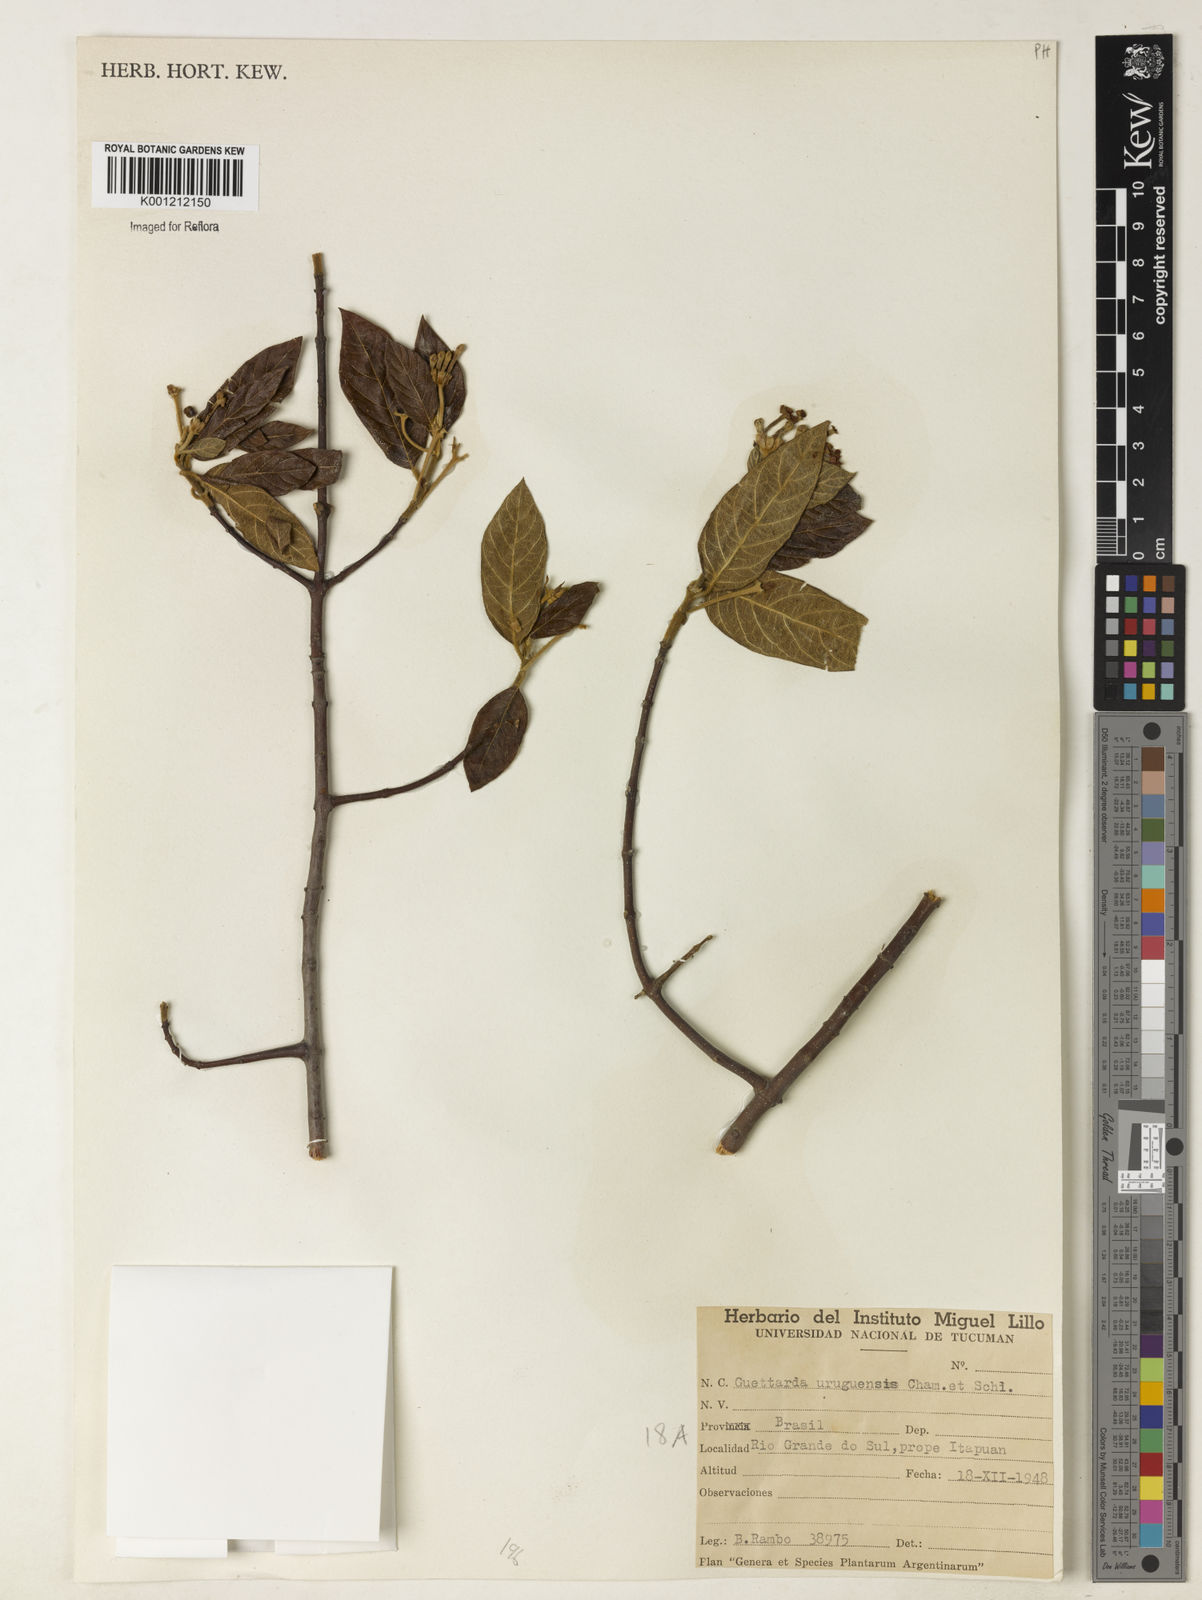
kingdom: Plantae
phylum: Tracheophyta
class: Magnoliopsida
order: Gentianales
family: Rubiaceae
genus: Guettarda
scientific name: Guettarda uruguensis
